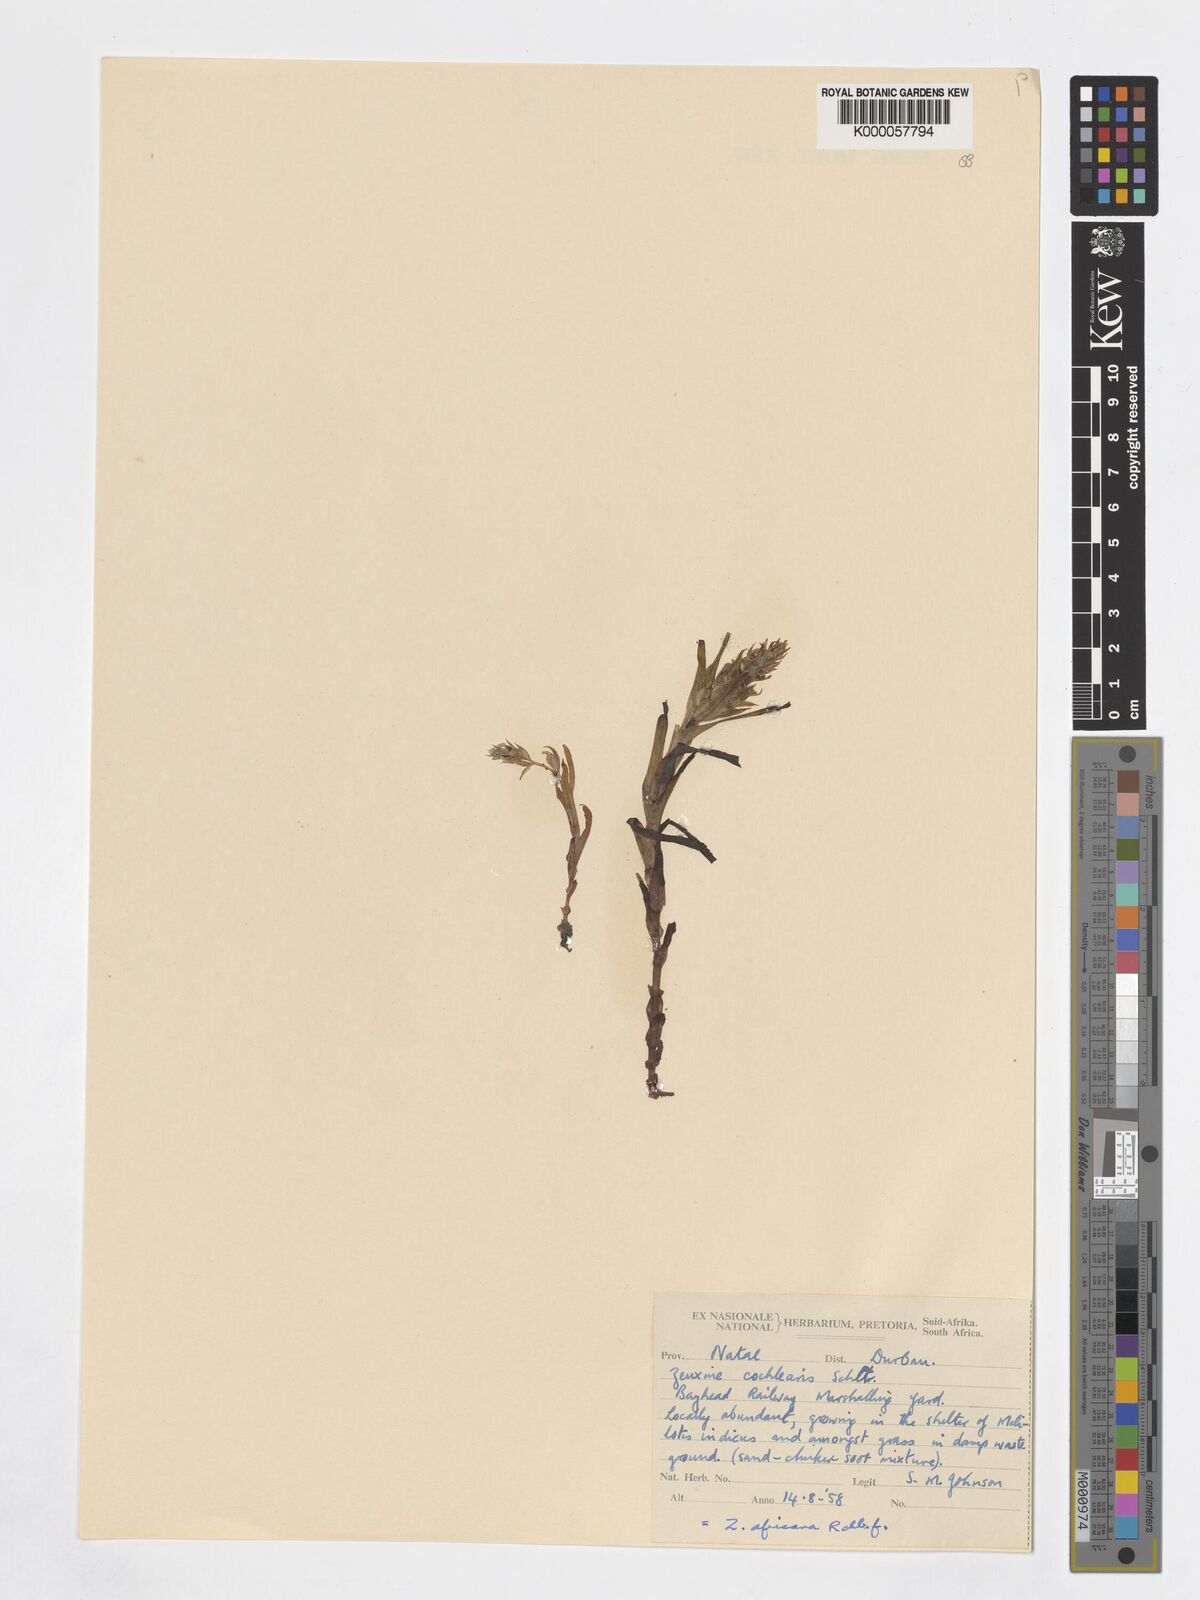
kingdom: Plantae
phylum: Tracheophyta
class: Liliopsida
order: Asparagales
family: Orchidaceae
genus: Zeuxine
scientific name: Zeuxine africana
